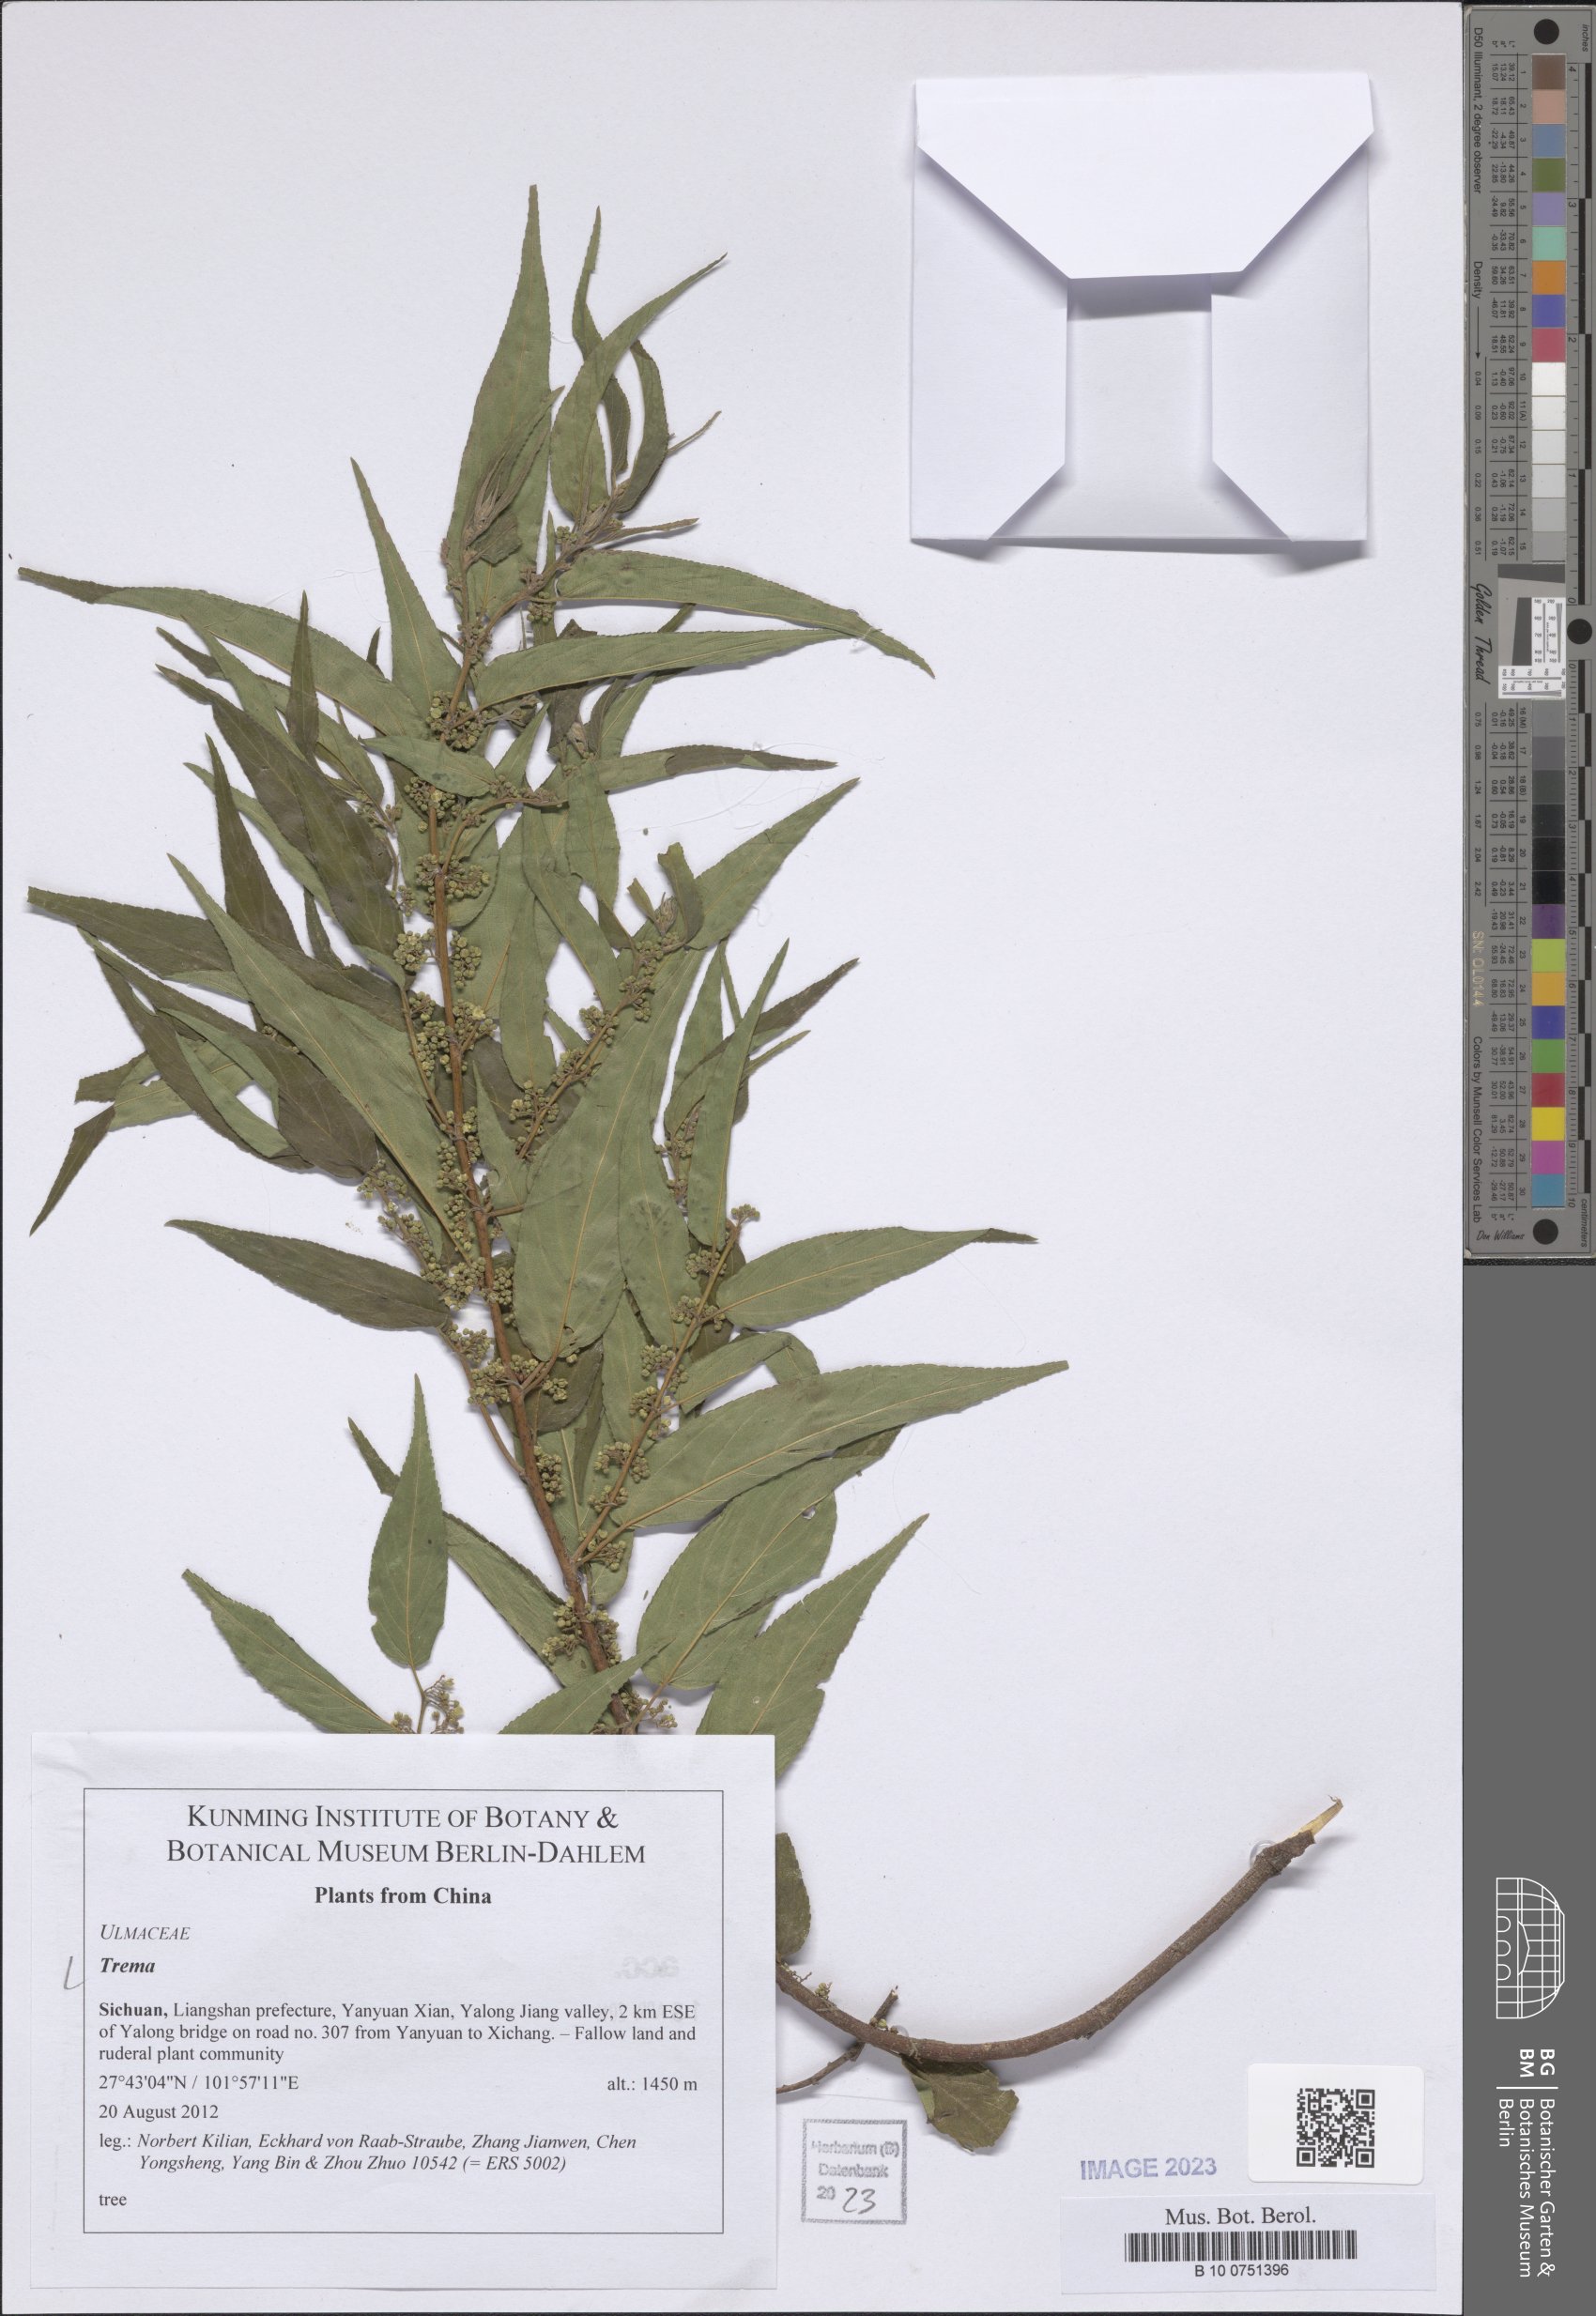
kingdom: Plantae
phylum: Tracheophyta
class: Magnoliopsida
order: Rosales
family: Cannabaceae
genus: Trema
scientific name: Trema
